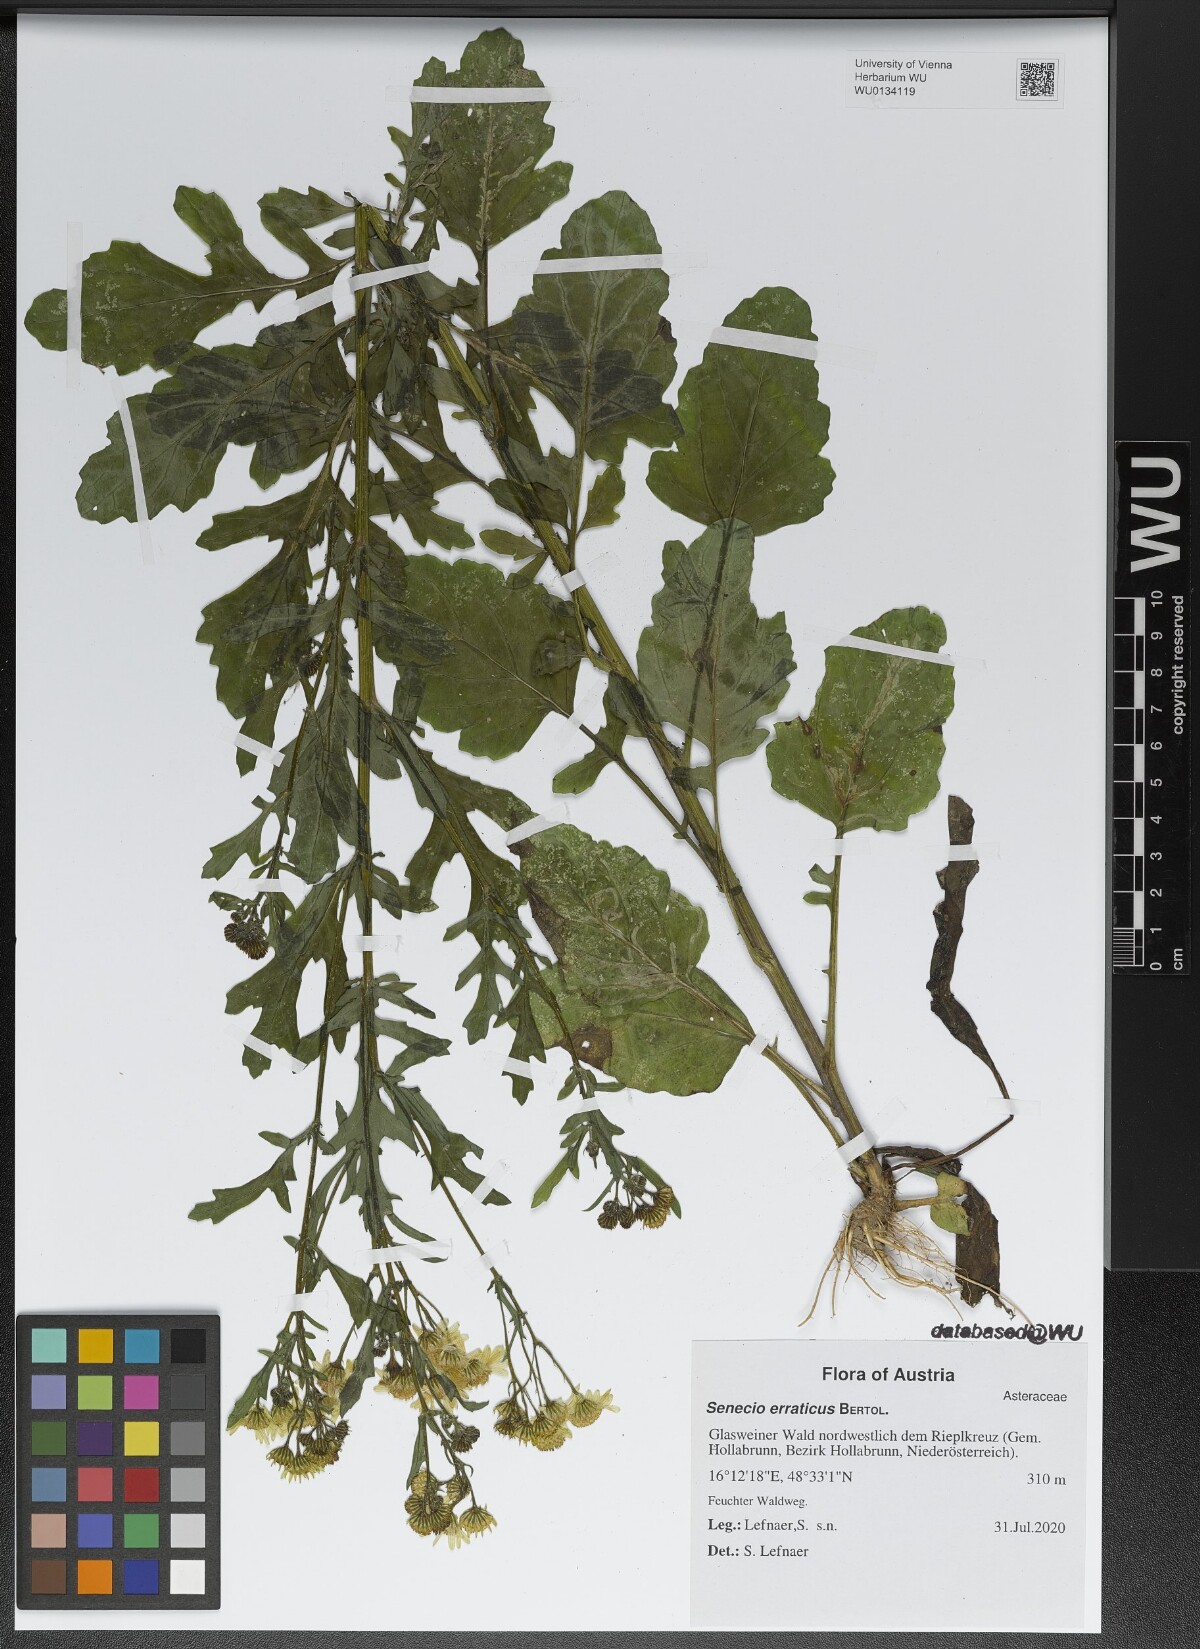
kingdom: Plantae
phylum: Tracheophyta
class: Magnoliopsida
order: Asterales
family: Asteraceae
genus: Jacobaea
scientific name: Jacobaea erratica
